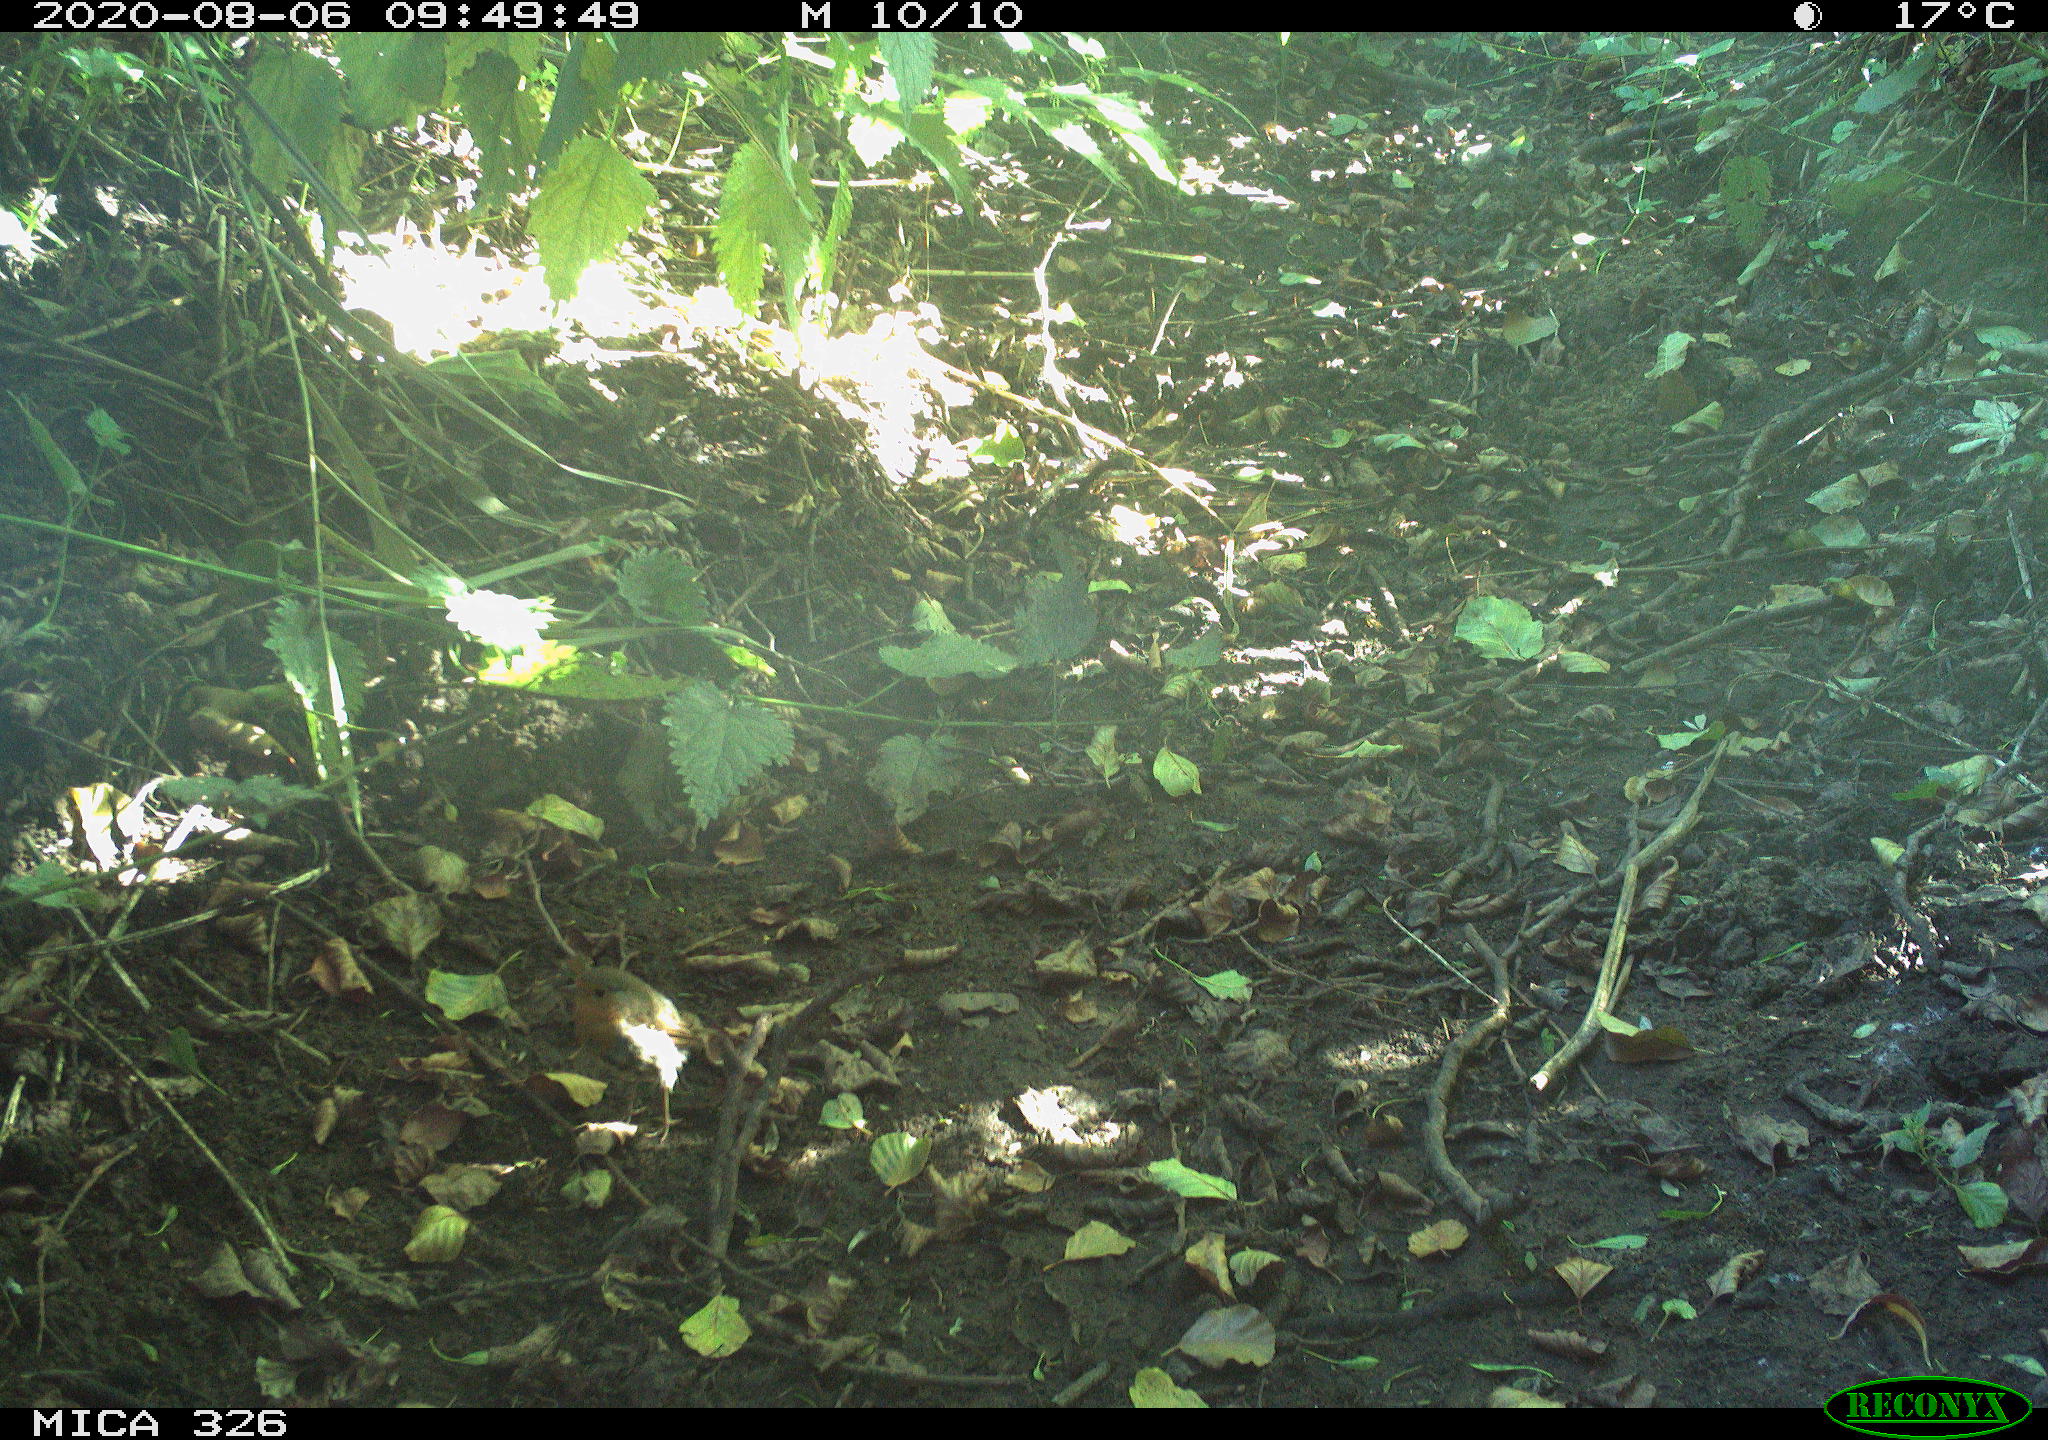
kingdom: Animalia
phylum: Chordata
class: Aves
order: Passeriformes
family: Muscicapidae
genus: Erithacus
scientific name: Erithacus rubecula
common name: European robin
